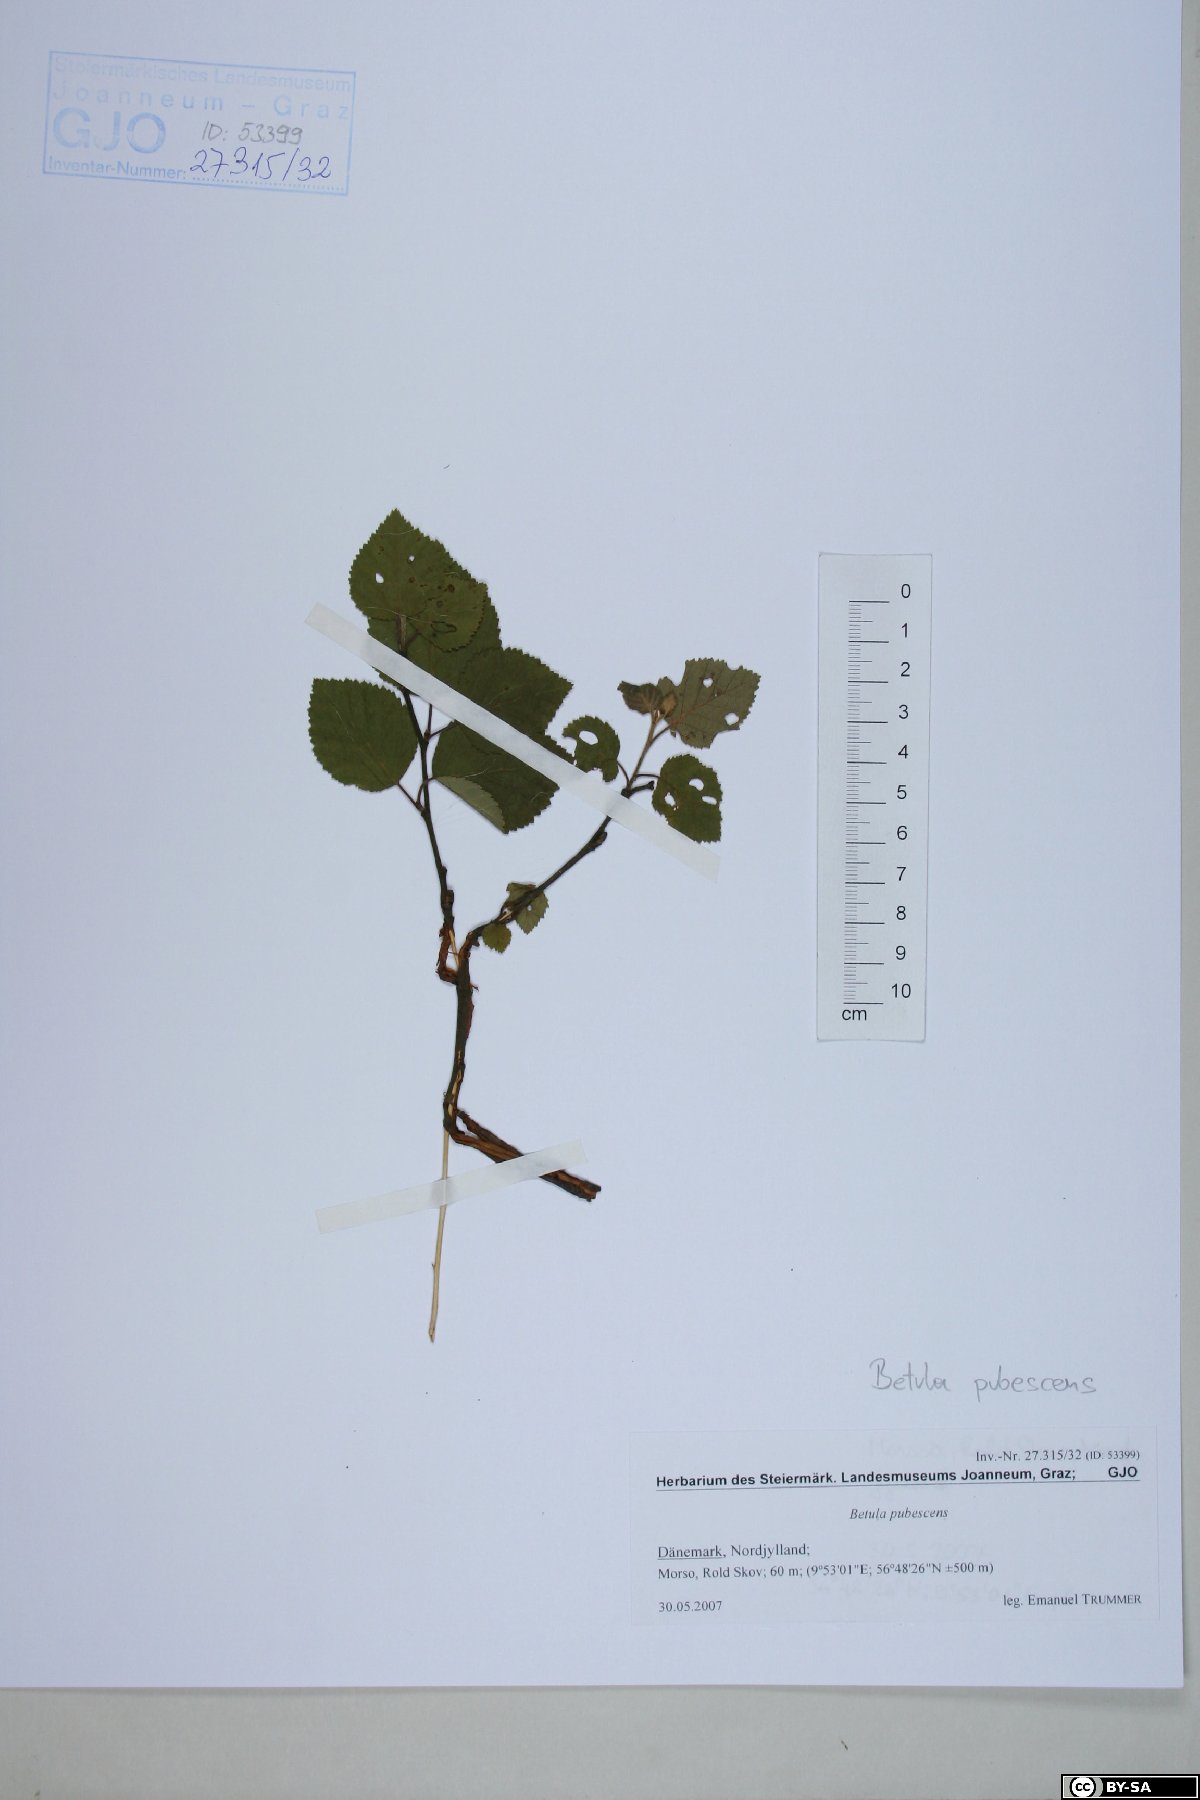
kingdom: Plantae
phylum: Tracheophyta
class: Magnoliopsida
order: Fagales
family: Betulaceae
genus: Betula
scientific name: Betula pubescens
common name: Downy birch
